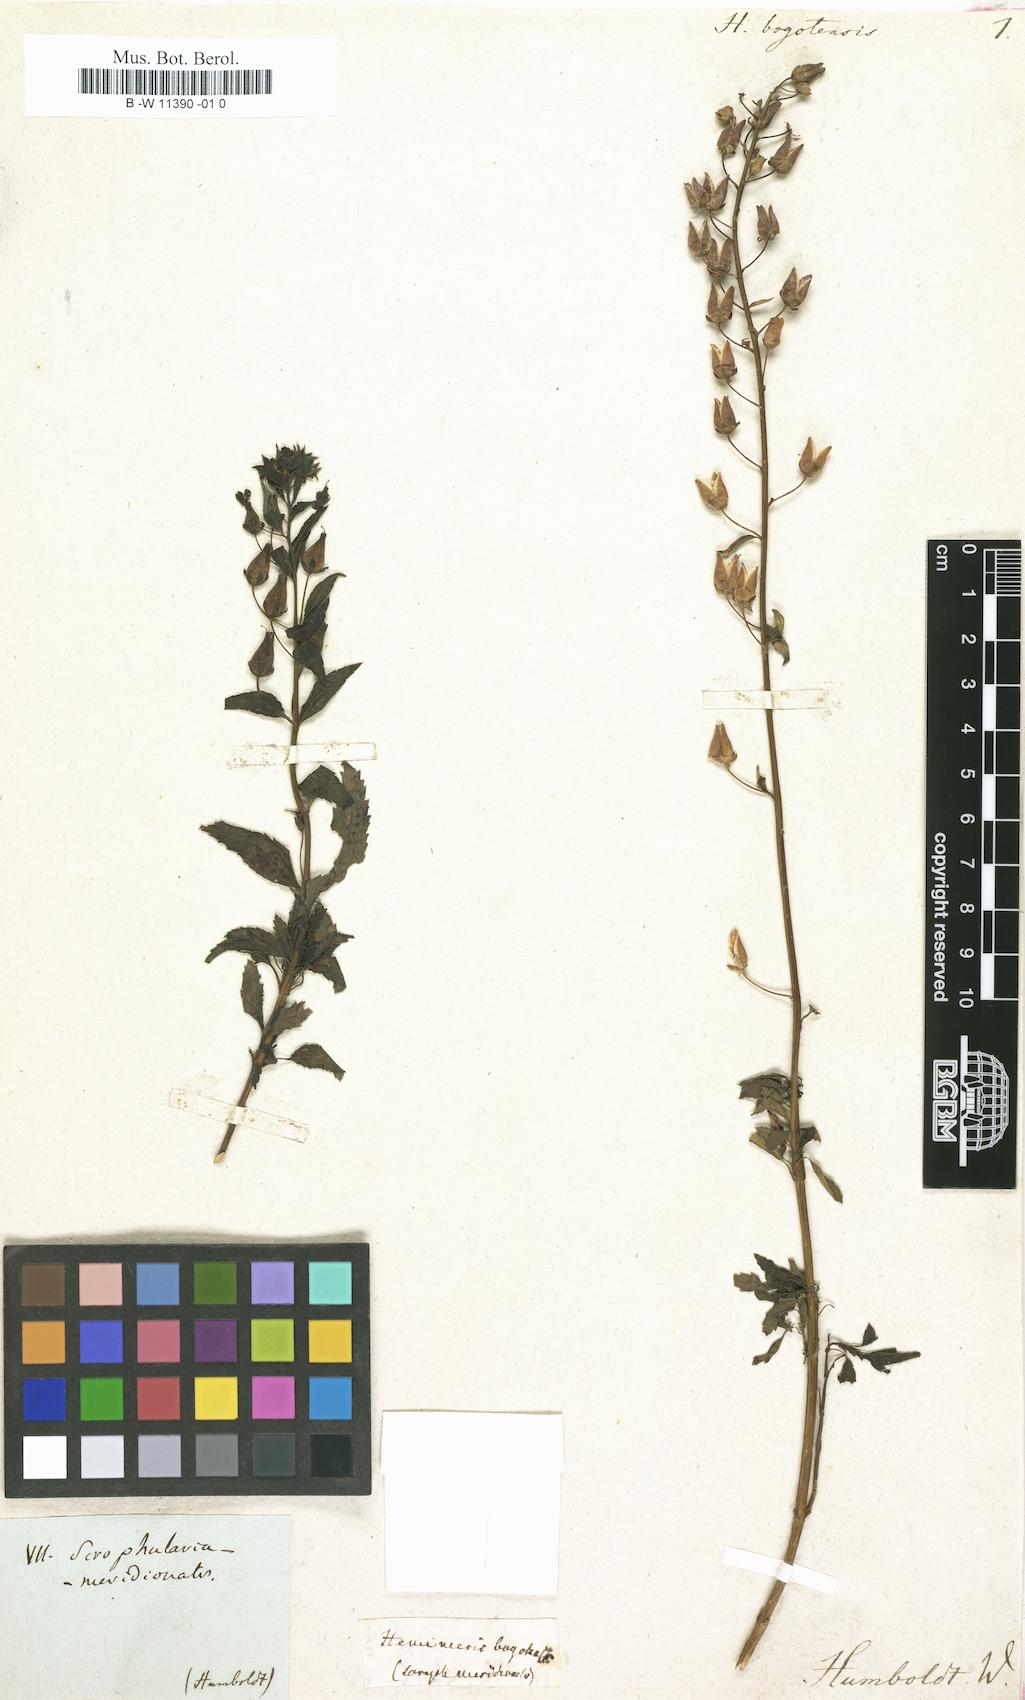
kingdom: Plantae
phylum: Tracheophyta
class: Magnoliopsida
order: Lamiales
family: Scrophulariaceae
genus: Hemimeris
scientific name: Hemimeris
